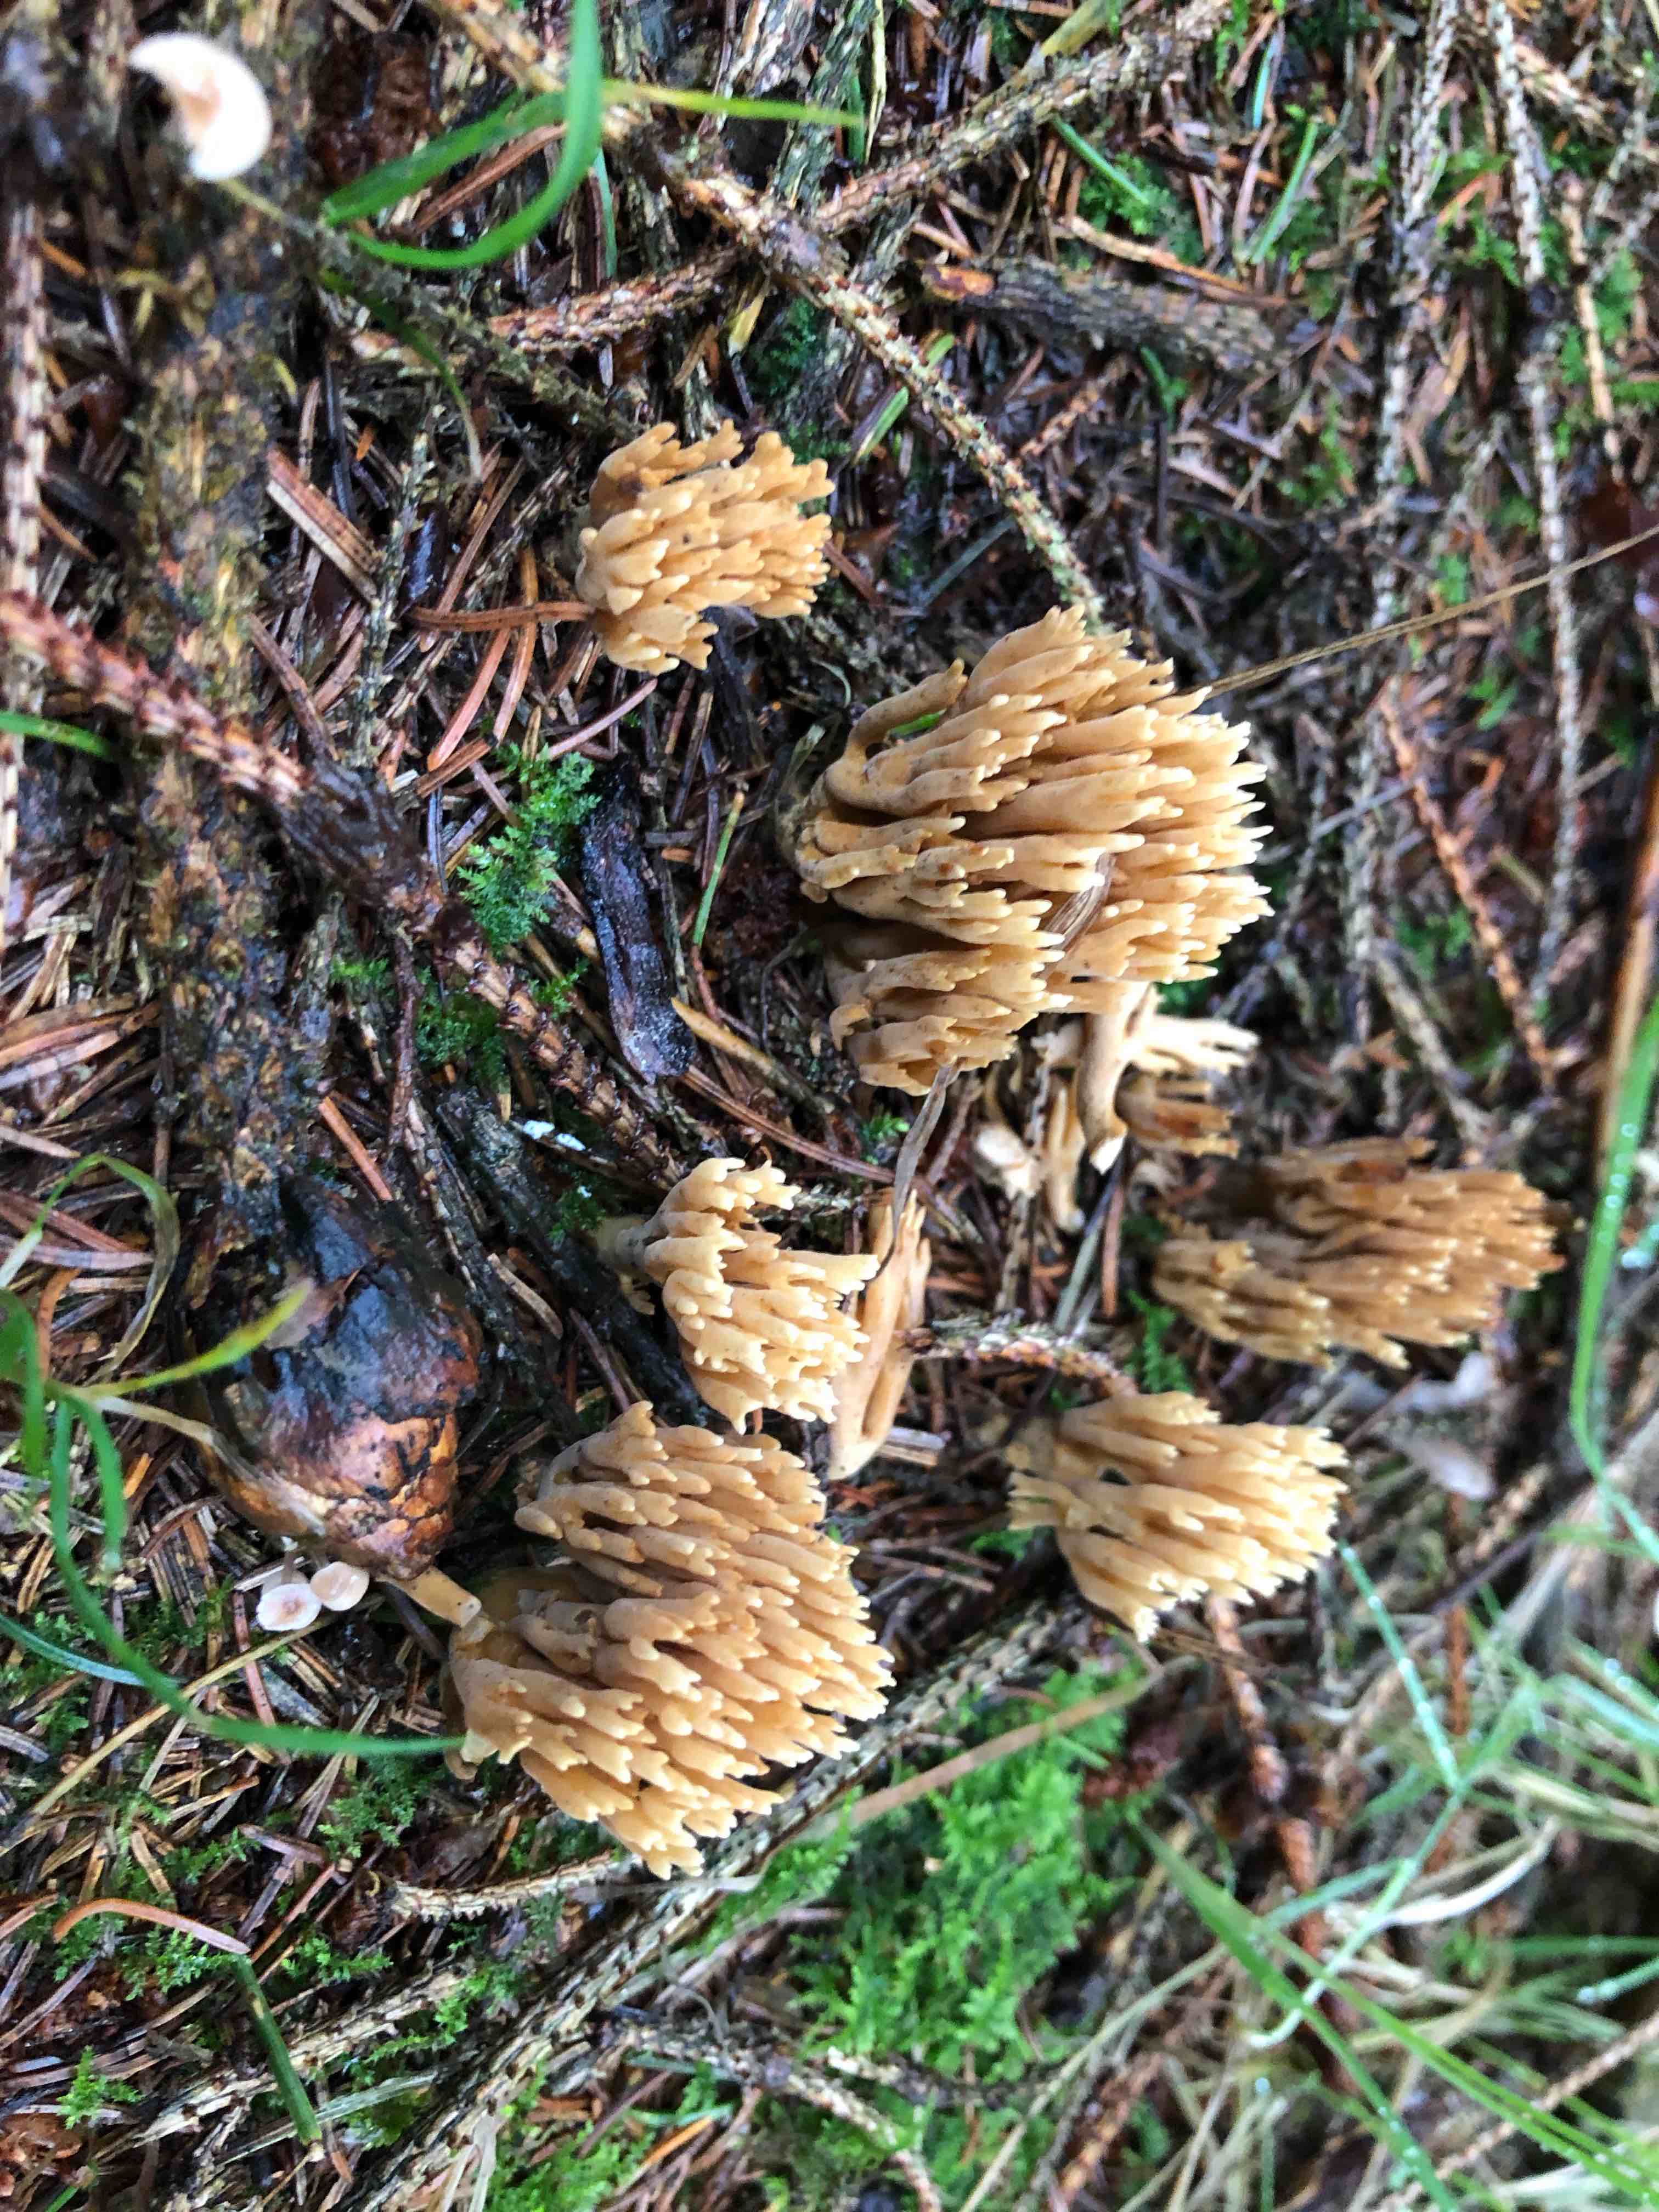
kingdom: Fungi
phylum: Basidiomycota
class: Agaricomycetes
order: Gomphales
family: Gomphaceae
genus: Phaeoclavulina
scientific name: Phaeoclavulina eumorpha
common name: gran-koralsvamp
